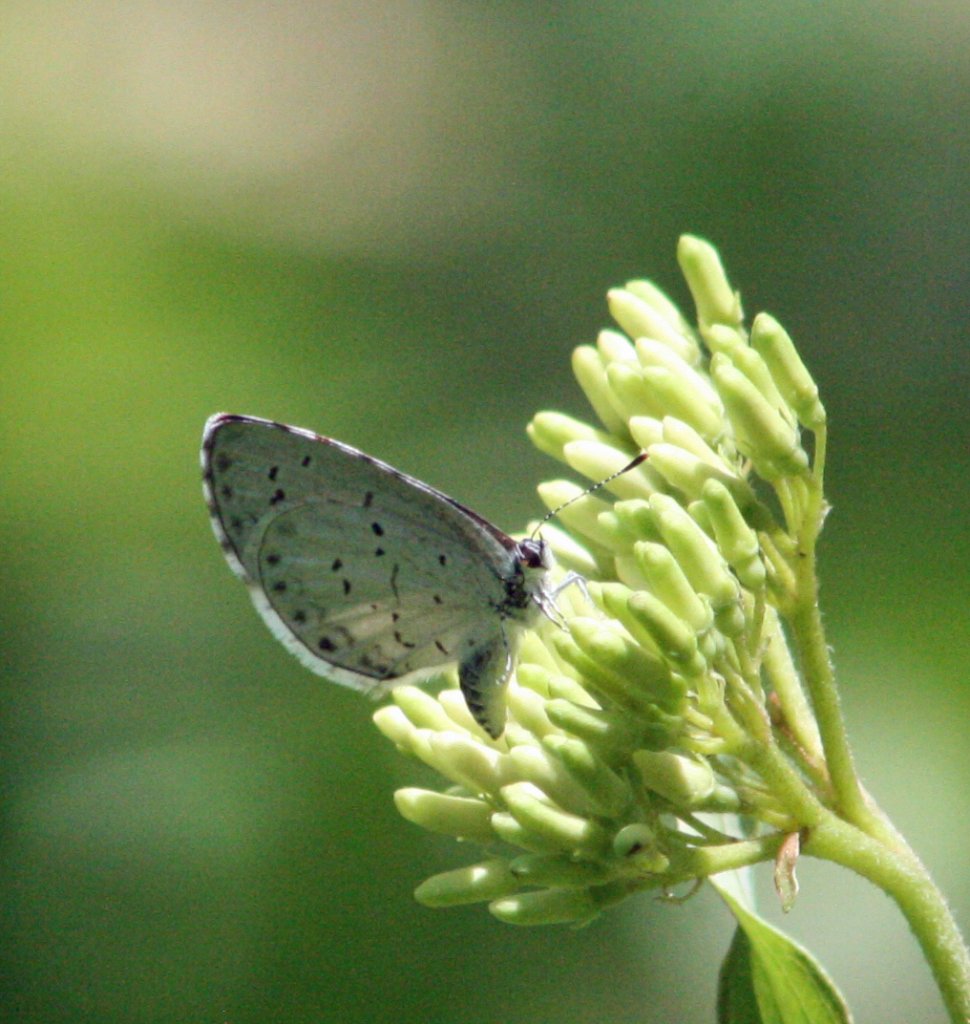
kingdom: Animalia
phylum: Arthropoda
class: Insecta
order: Lepidoptera
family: Lycaenidae
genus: Celastrina
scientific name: Celastrina
